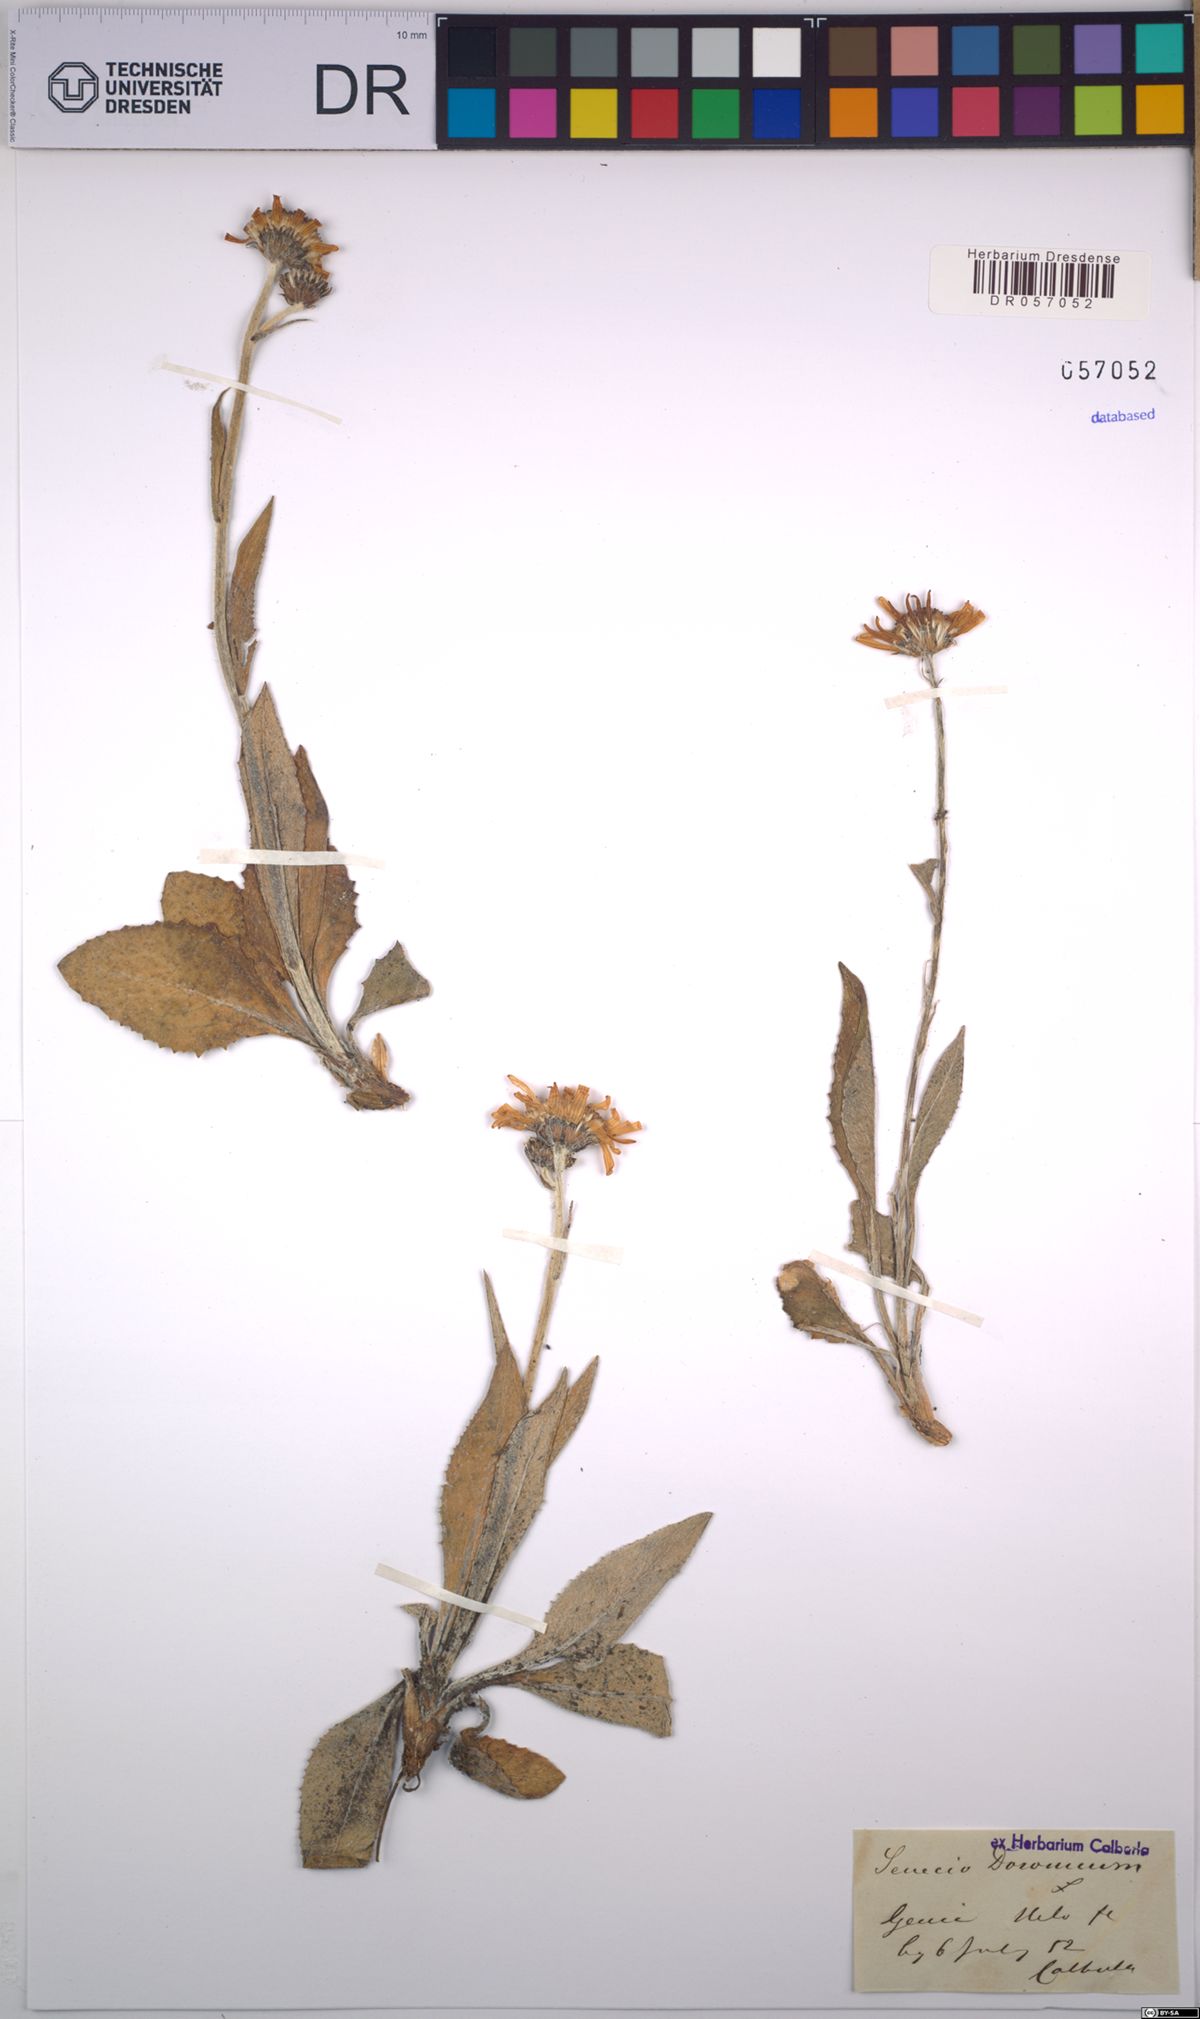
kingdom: Plantae
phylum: Tracheophyta
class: Magnoliopsida
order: Asterales
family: Asteraceae
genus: Senecio
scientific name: Senecio doronicum
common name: Chamois ragwort
